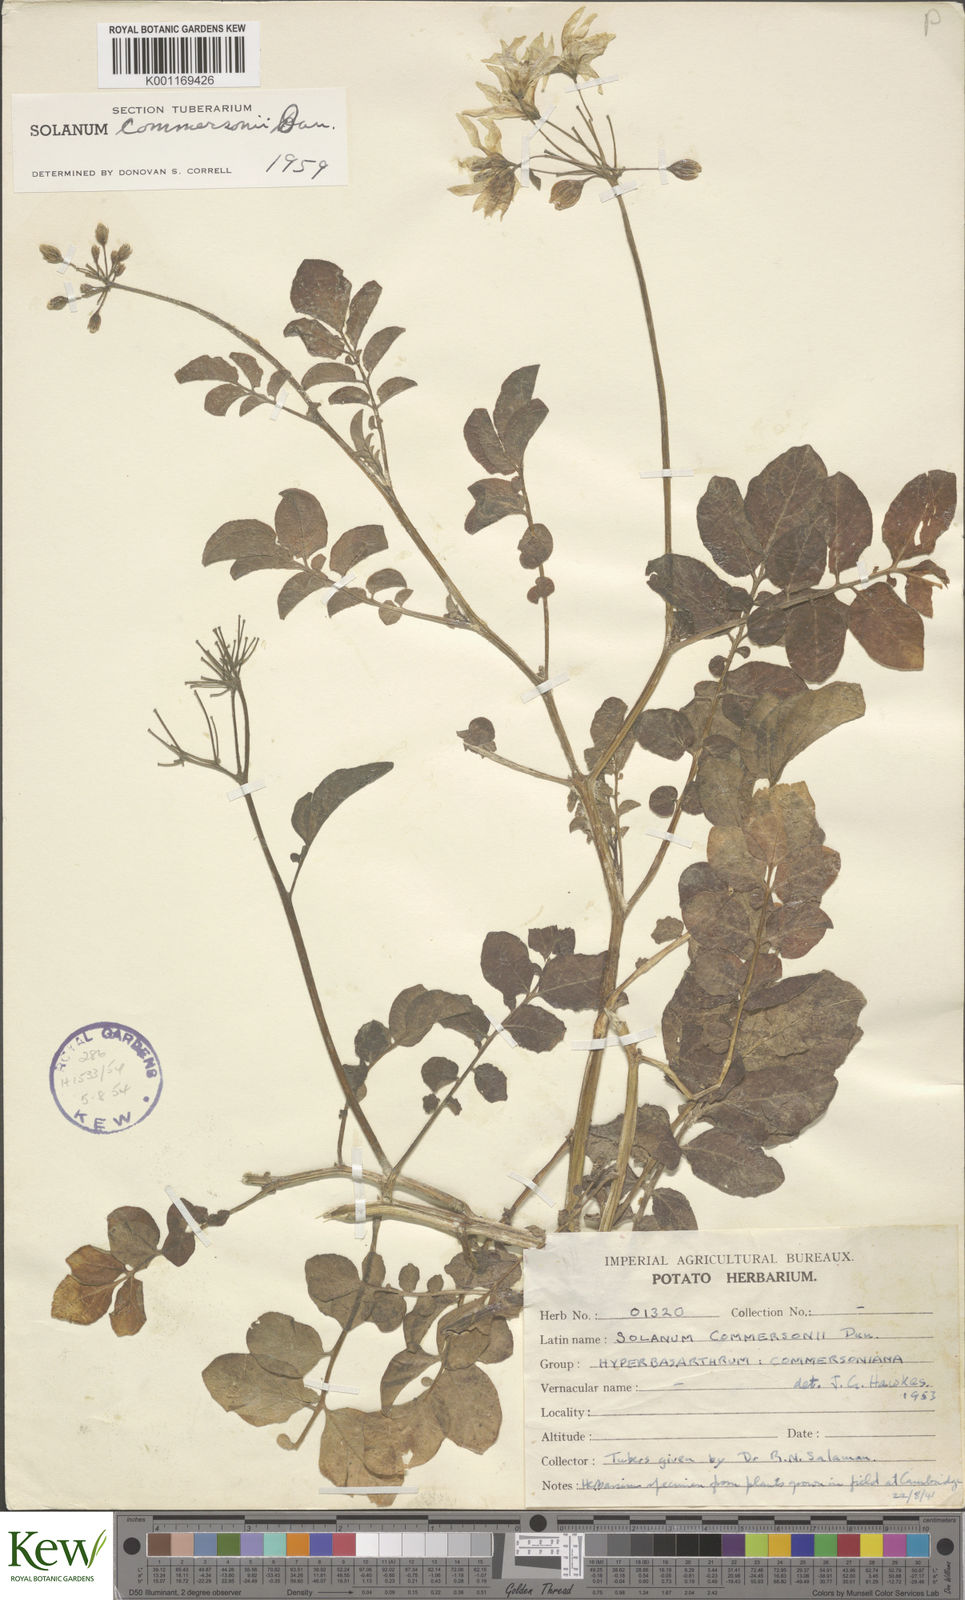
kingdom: Plantae
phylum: Tracheophyta
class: Magnoliopsida
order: Solanales
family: Solanaceae
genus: Solanum
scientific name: Solanum commersonii
